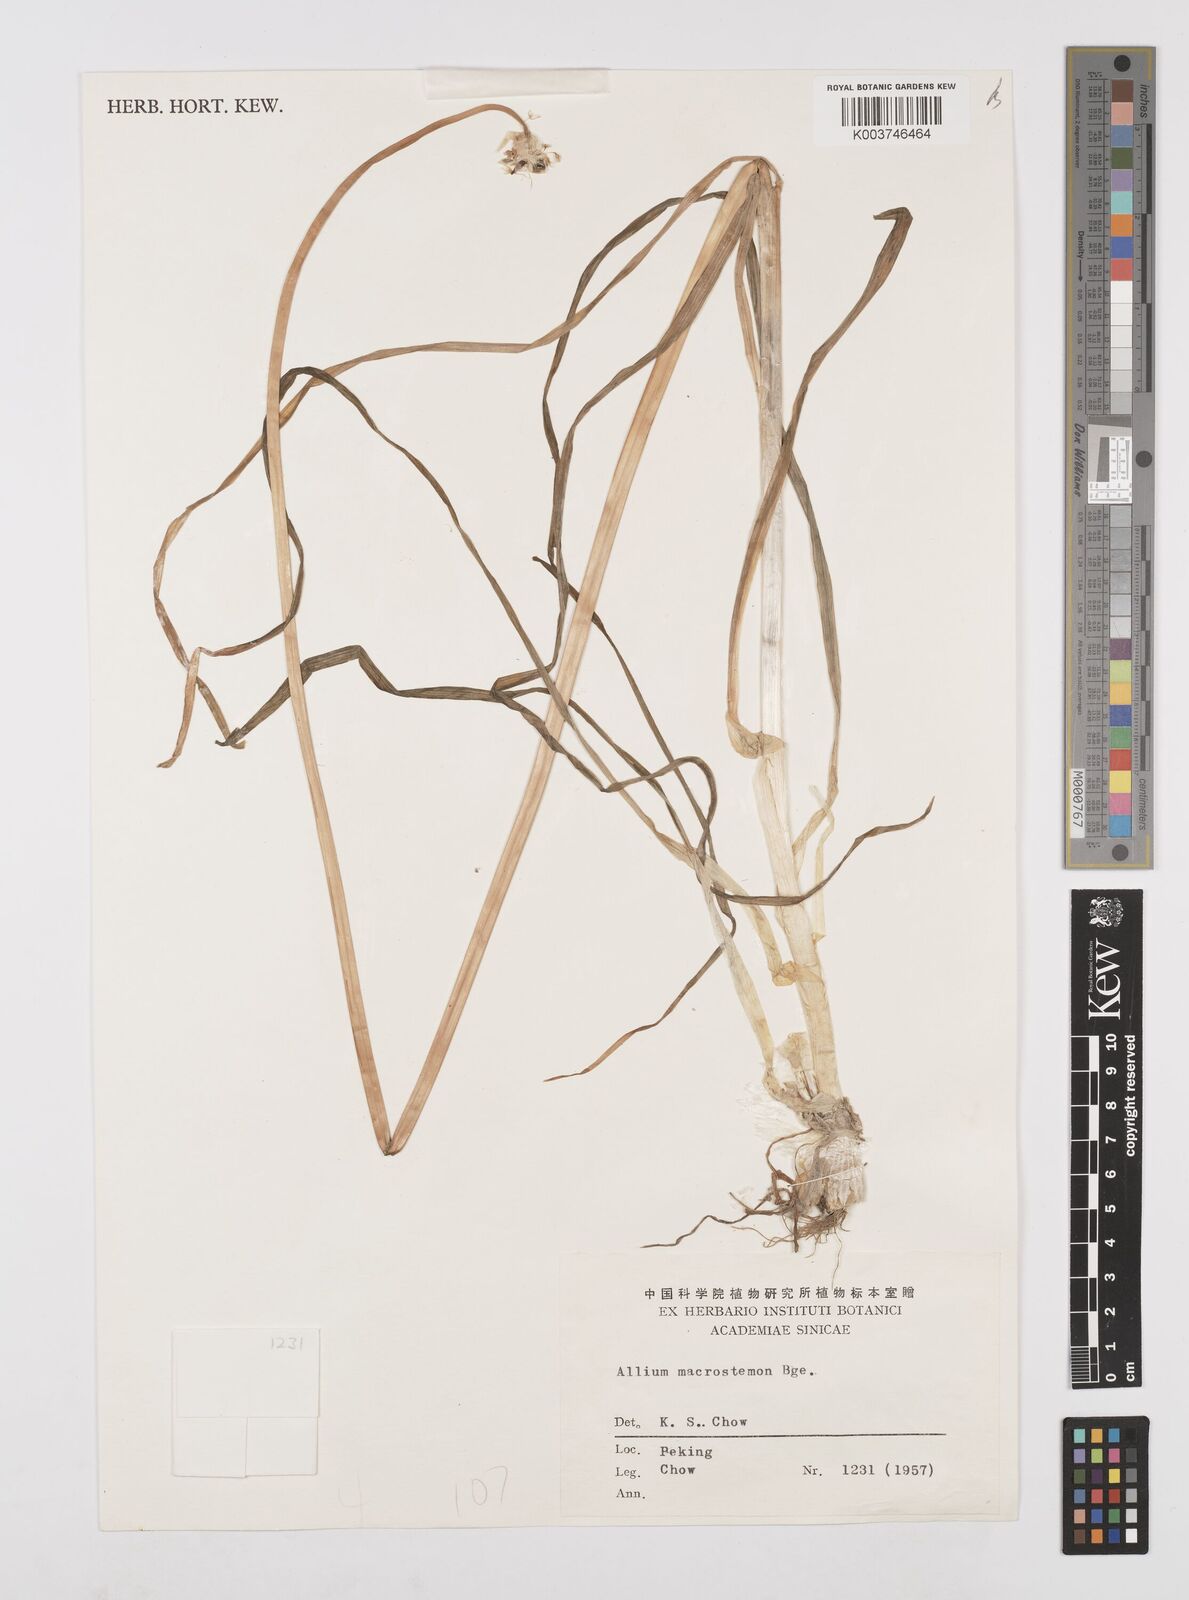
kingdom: Plantae
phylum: Tracheophyta
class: Liliopsida
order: Asparagales
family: Amaryllidaceae
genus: Allium
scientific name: Allium macrostemon
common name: Chinese garlic
